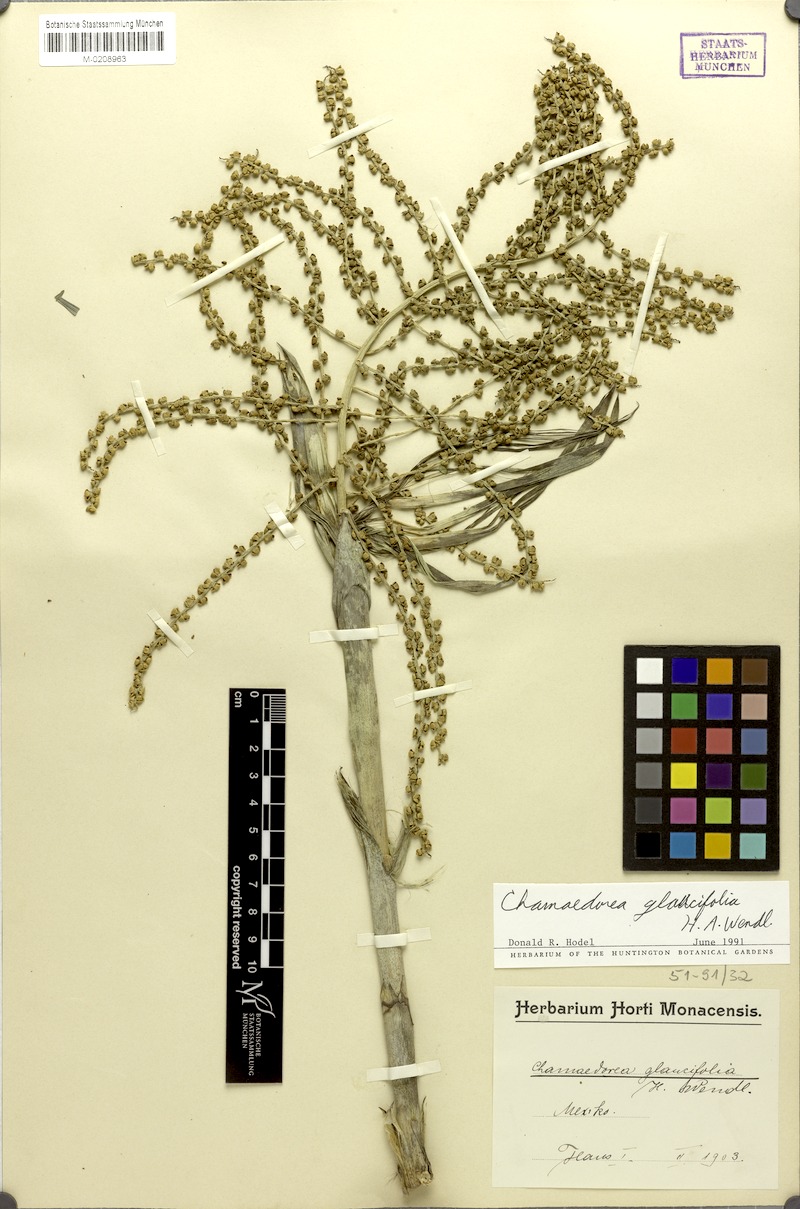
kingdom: Plantae
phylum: Tracheophyta
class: Liliopsida
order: Arecales
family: Arecaceae
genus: Chamaedorea
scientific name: Chamaedorea glaucifolia
